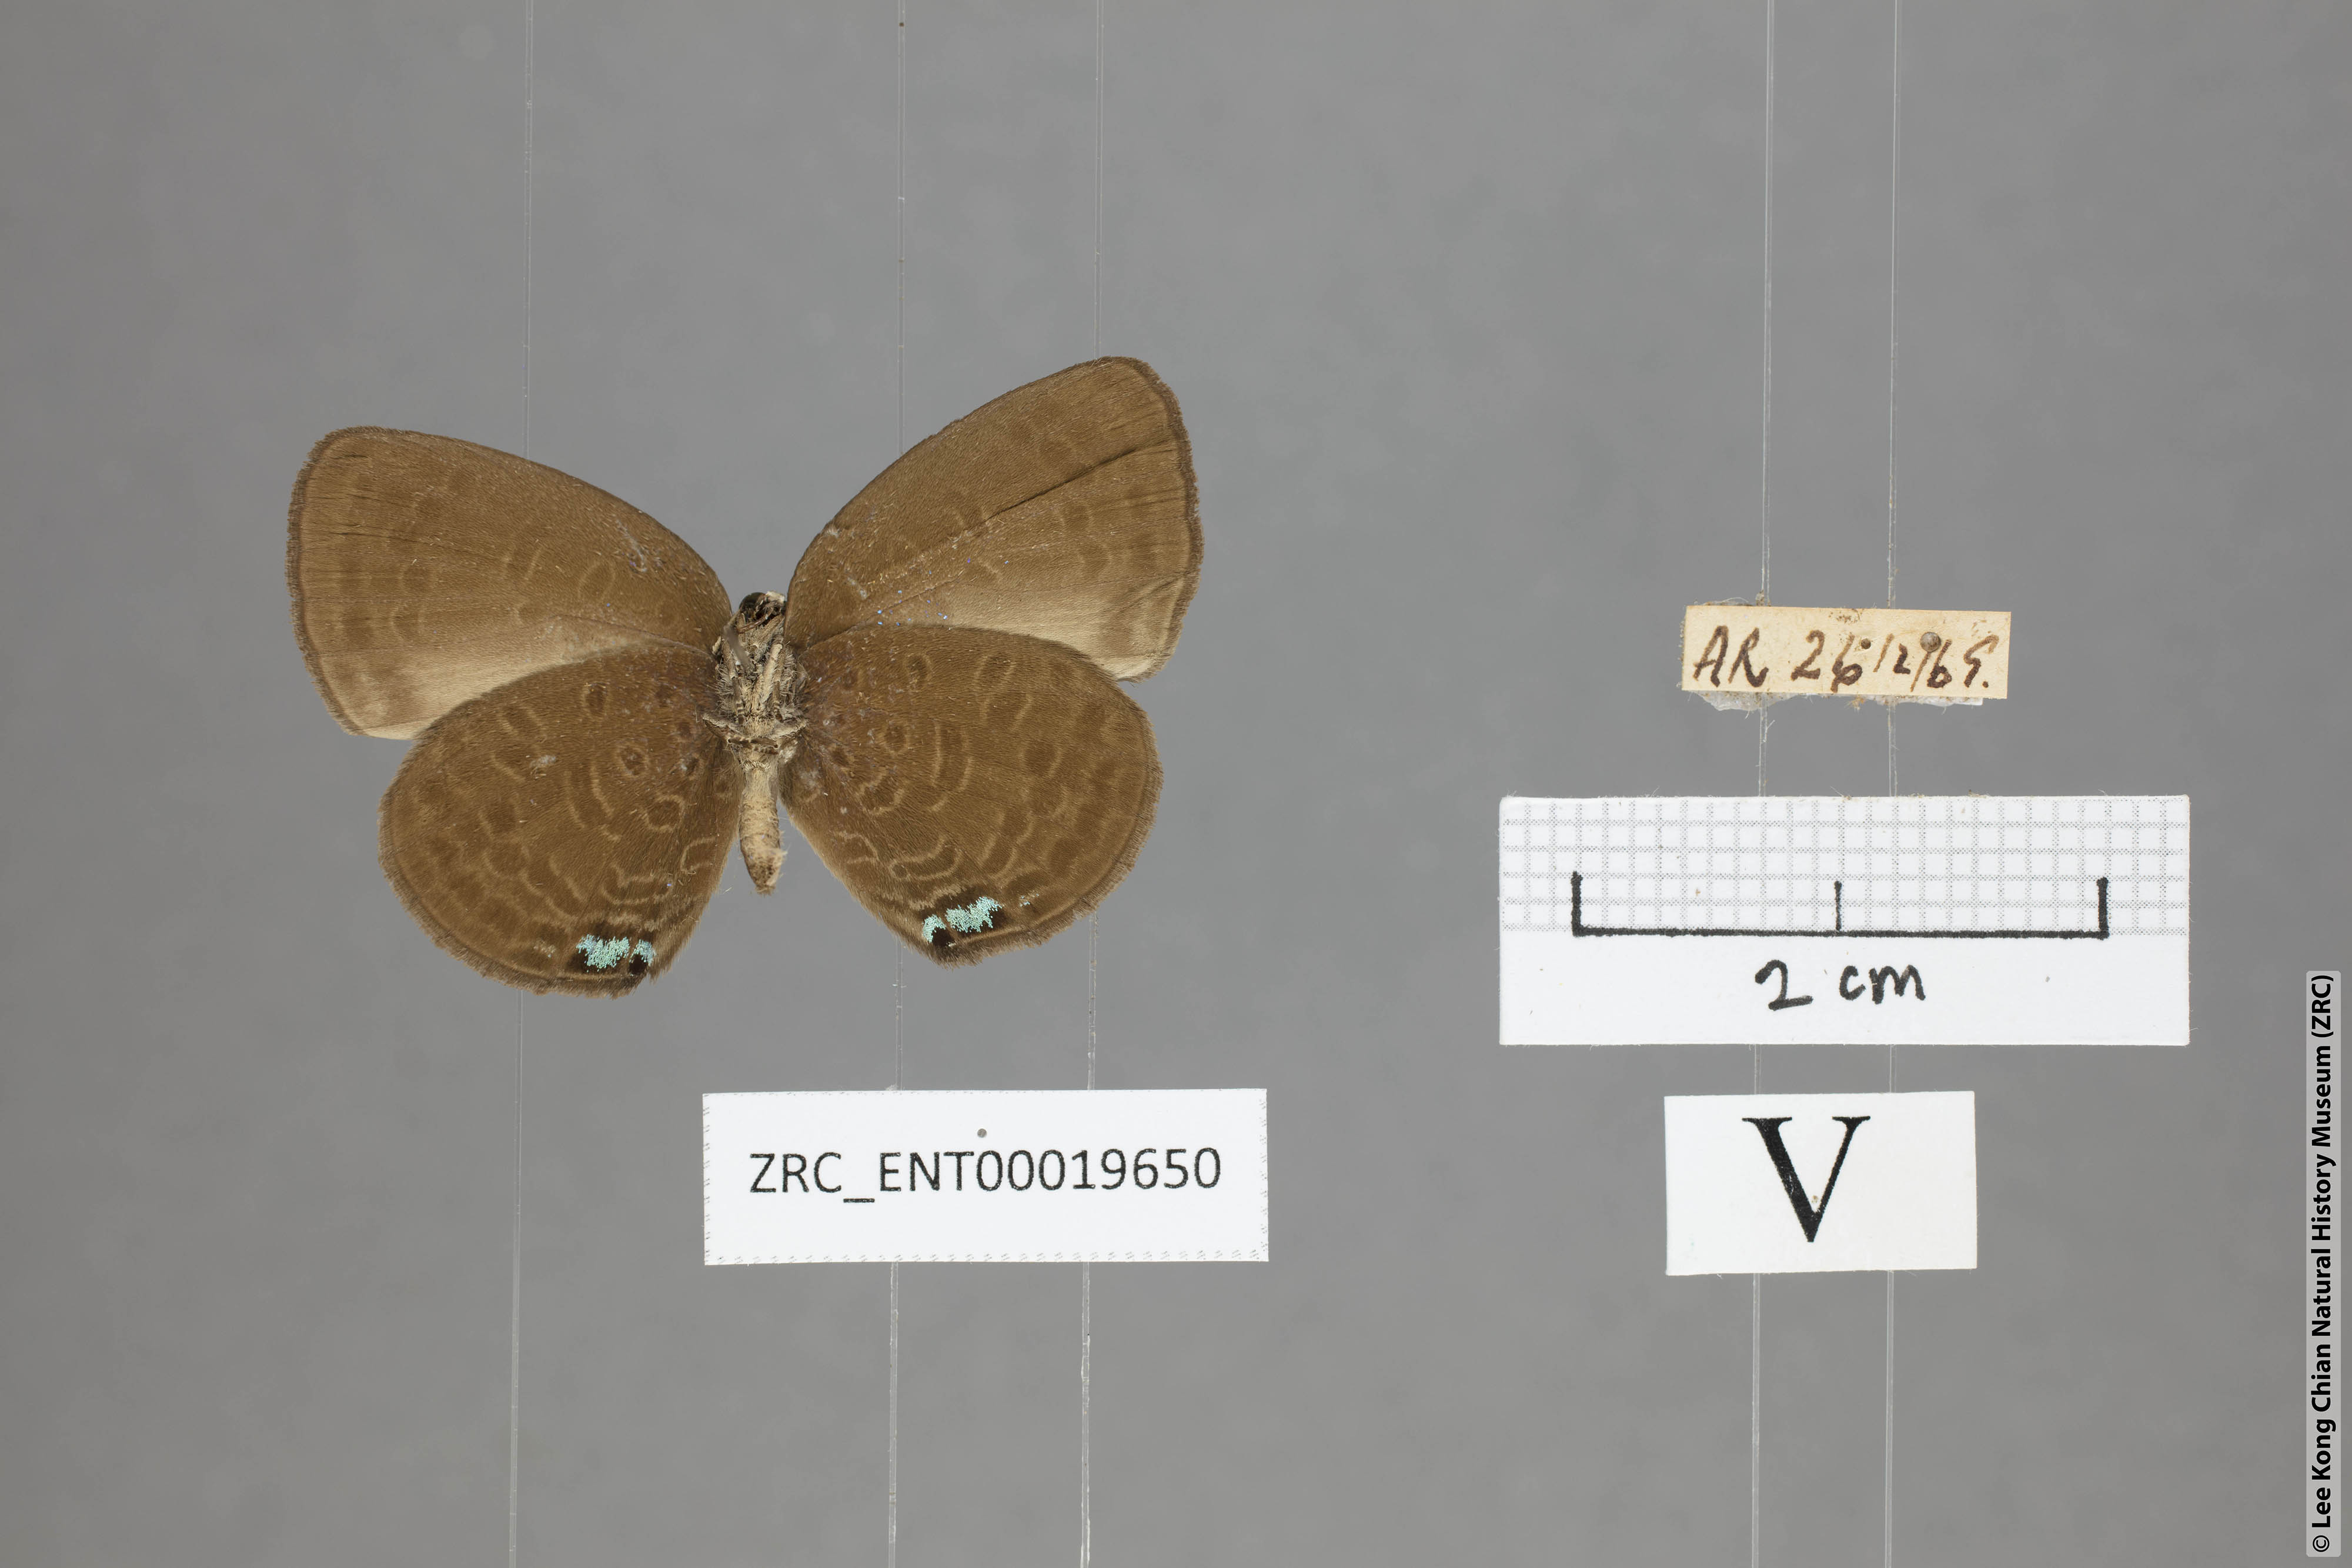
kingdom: Animalia
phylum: Arthropoda
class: Insecta
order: Lepidoptera
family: Lycaenidae
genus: Arhopala
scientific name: Arhopala metamuta
